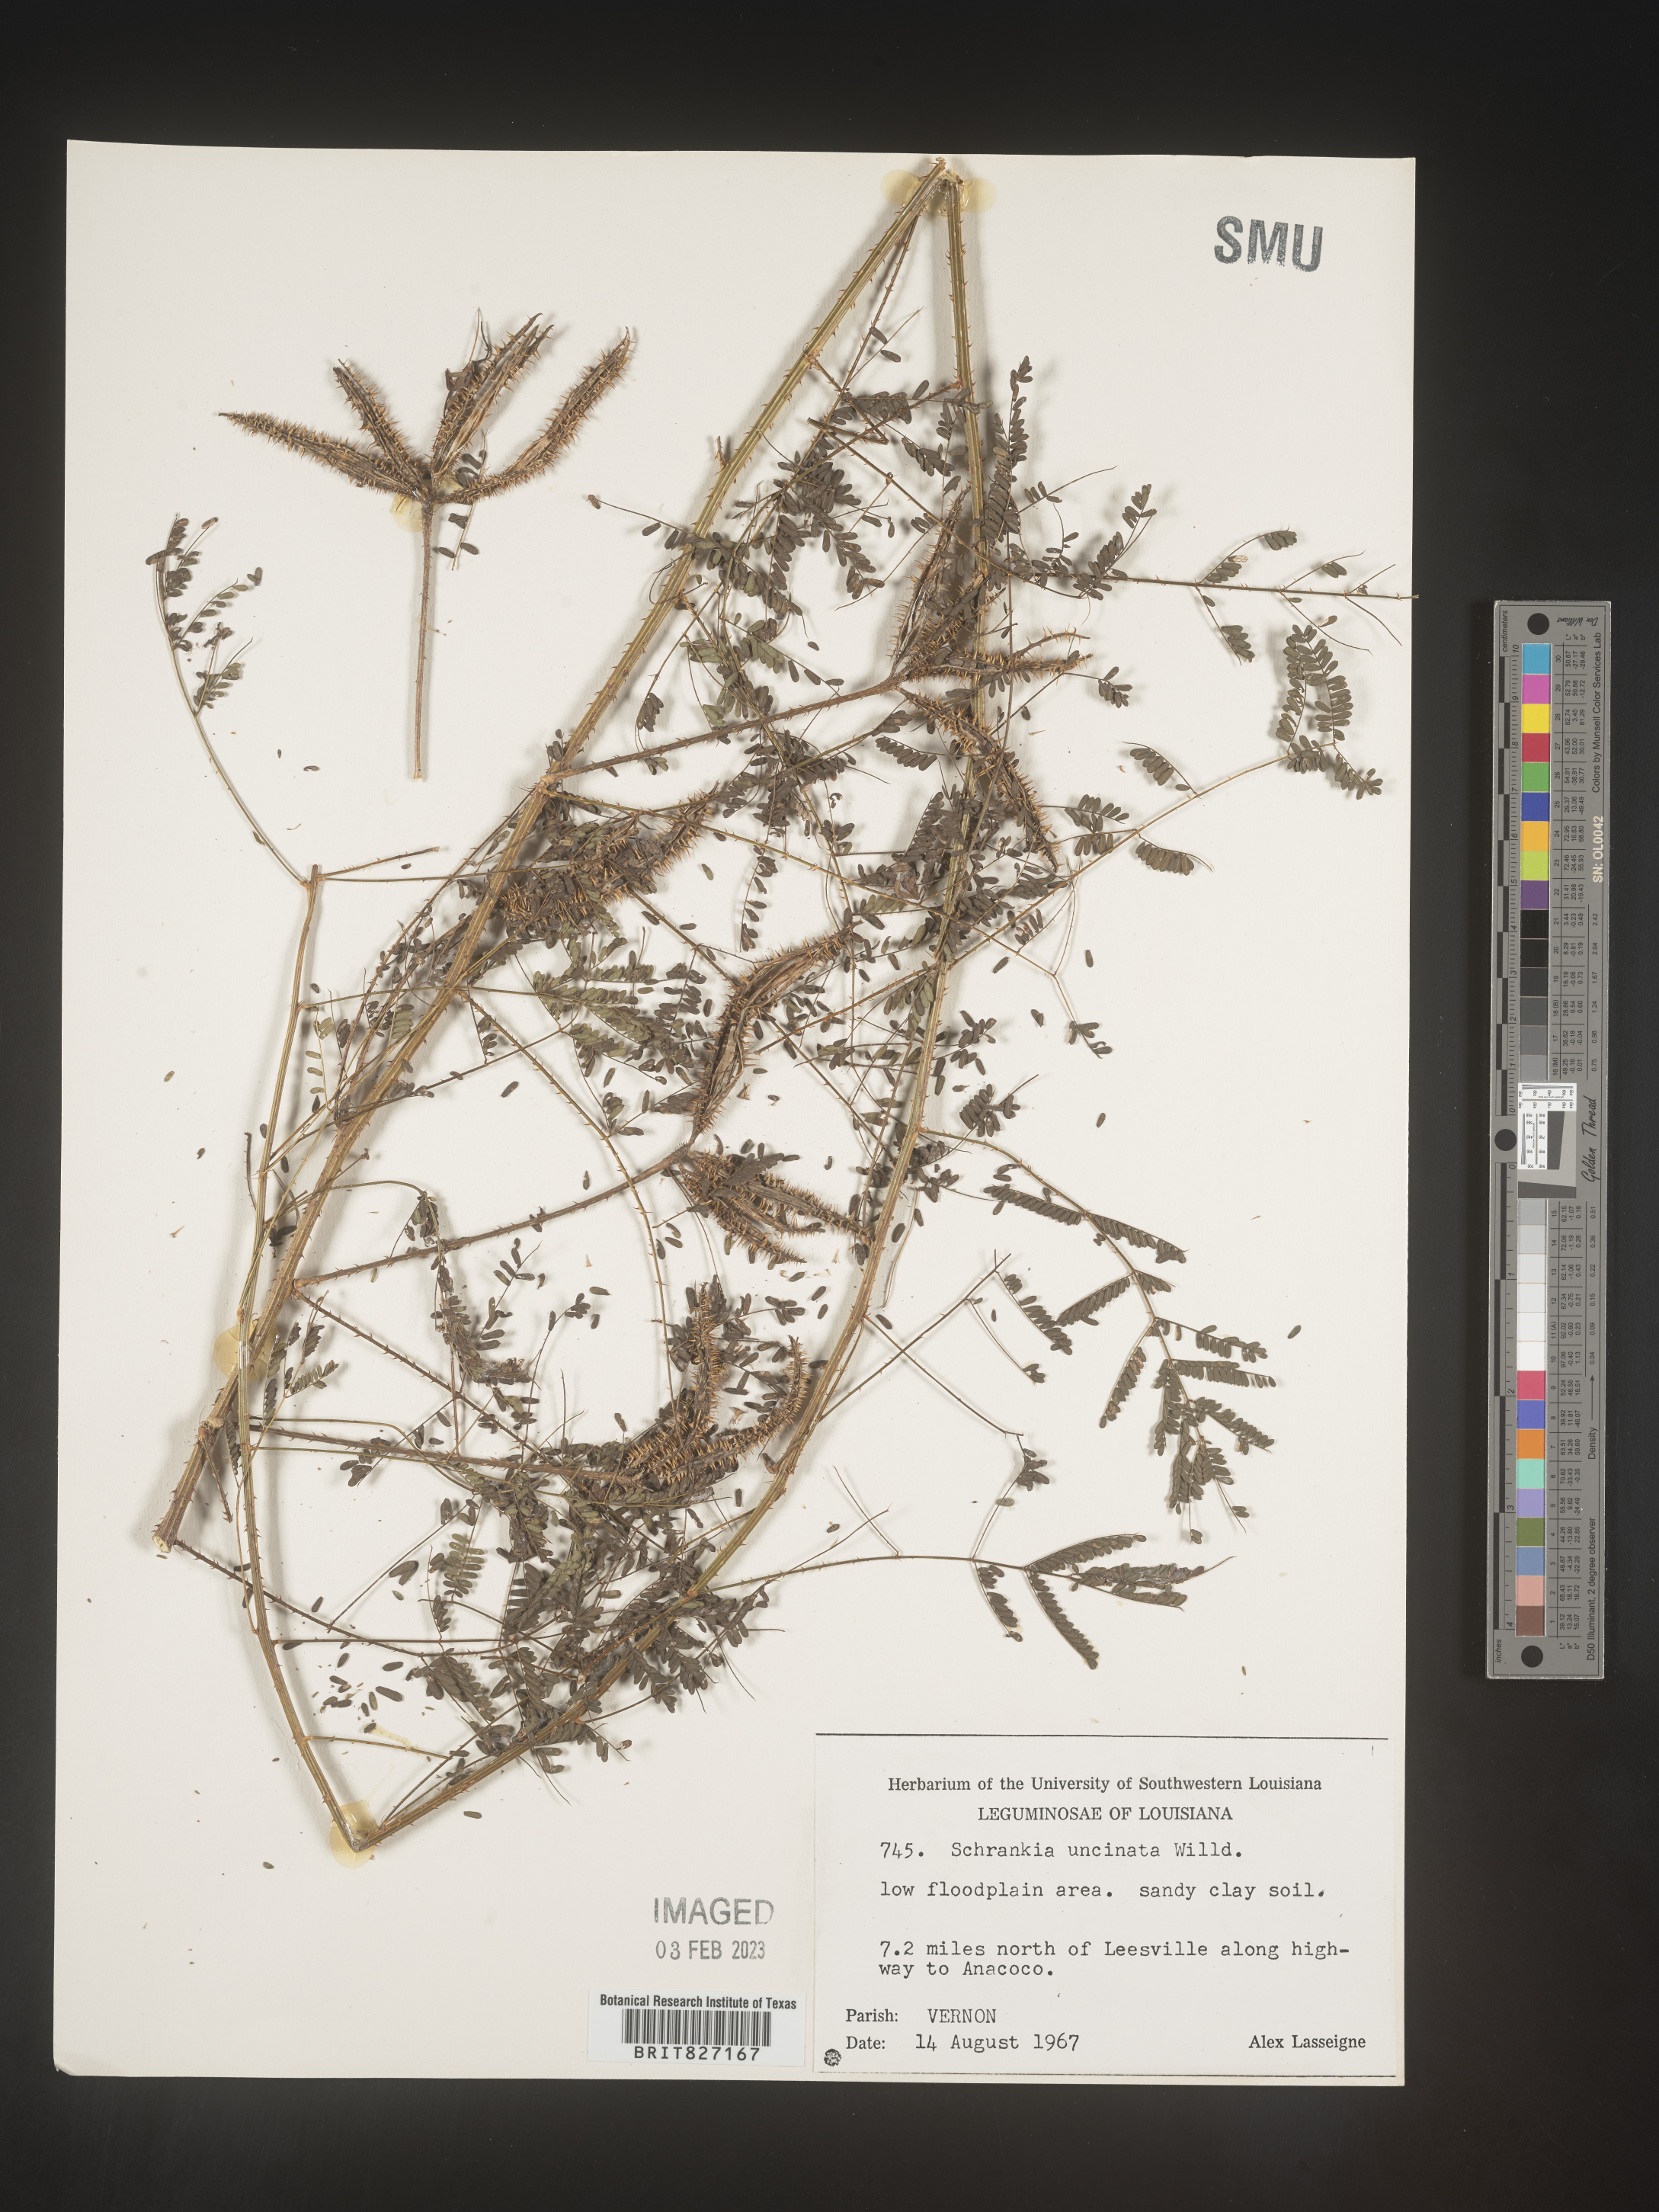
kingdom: Plantae
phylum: Tracheophyta
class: Magnoliopsida
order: Fabales
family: Fabaceae
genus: Mimosa
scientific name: Mimosa quadrivalvis
